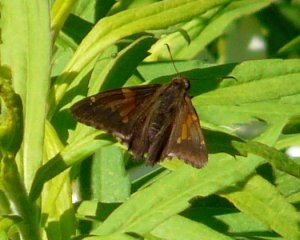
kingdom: Animalia
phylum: Arthropoda
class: Insecta
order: Lepidoptera
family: Hesperiidae
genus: Epargyreus
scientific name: Epargyreus clarus
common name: Silver-spotted Skipper
